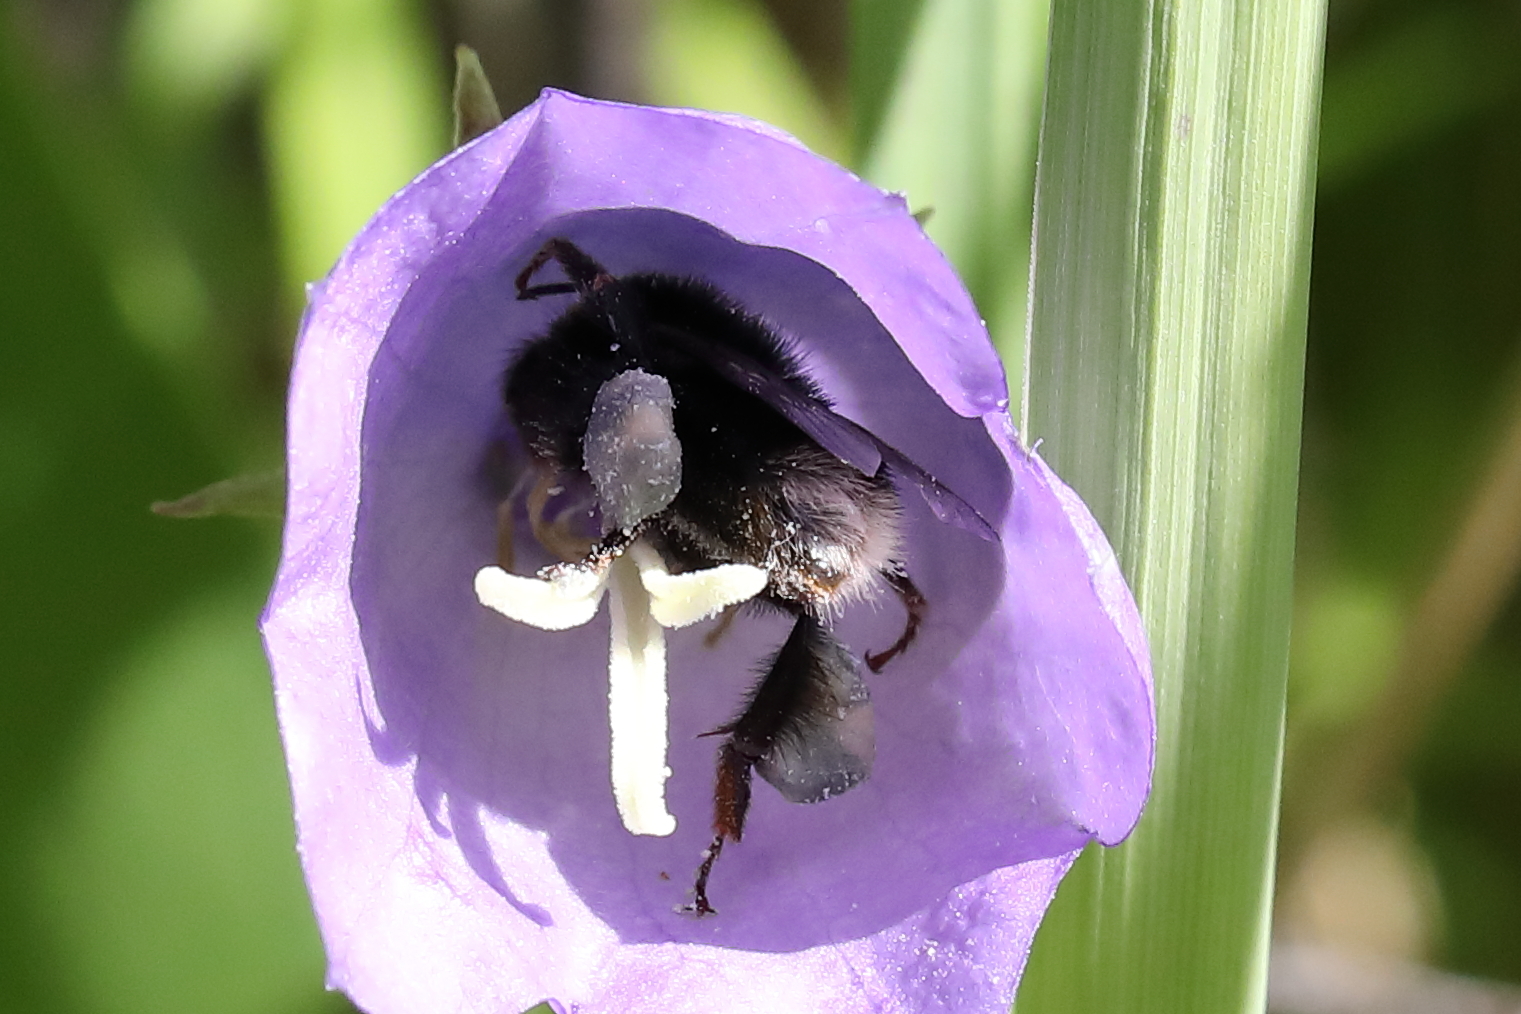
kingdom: Animalia
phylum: Arthropoda
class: Insecta
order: Hymenoptera
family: Apidae
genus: Bombus
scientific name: Bombus soroeensis
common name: Broken-belted humble-bee
